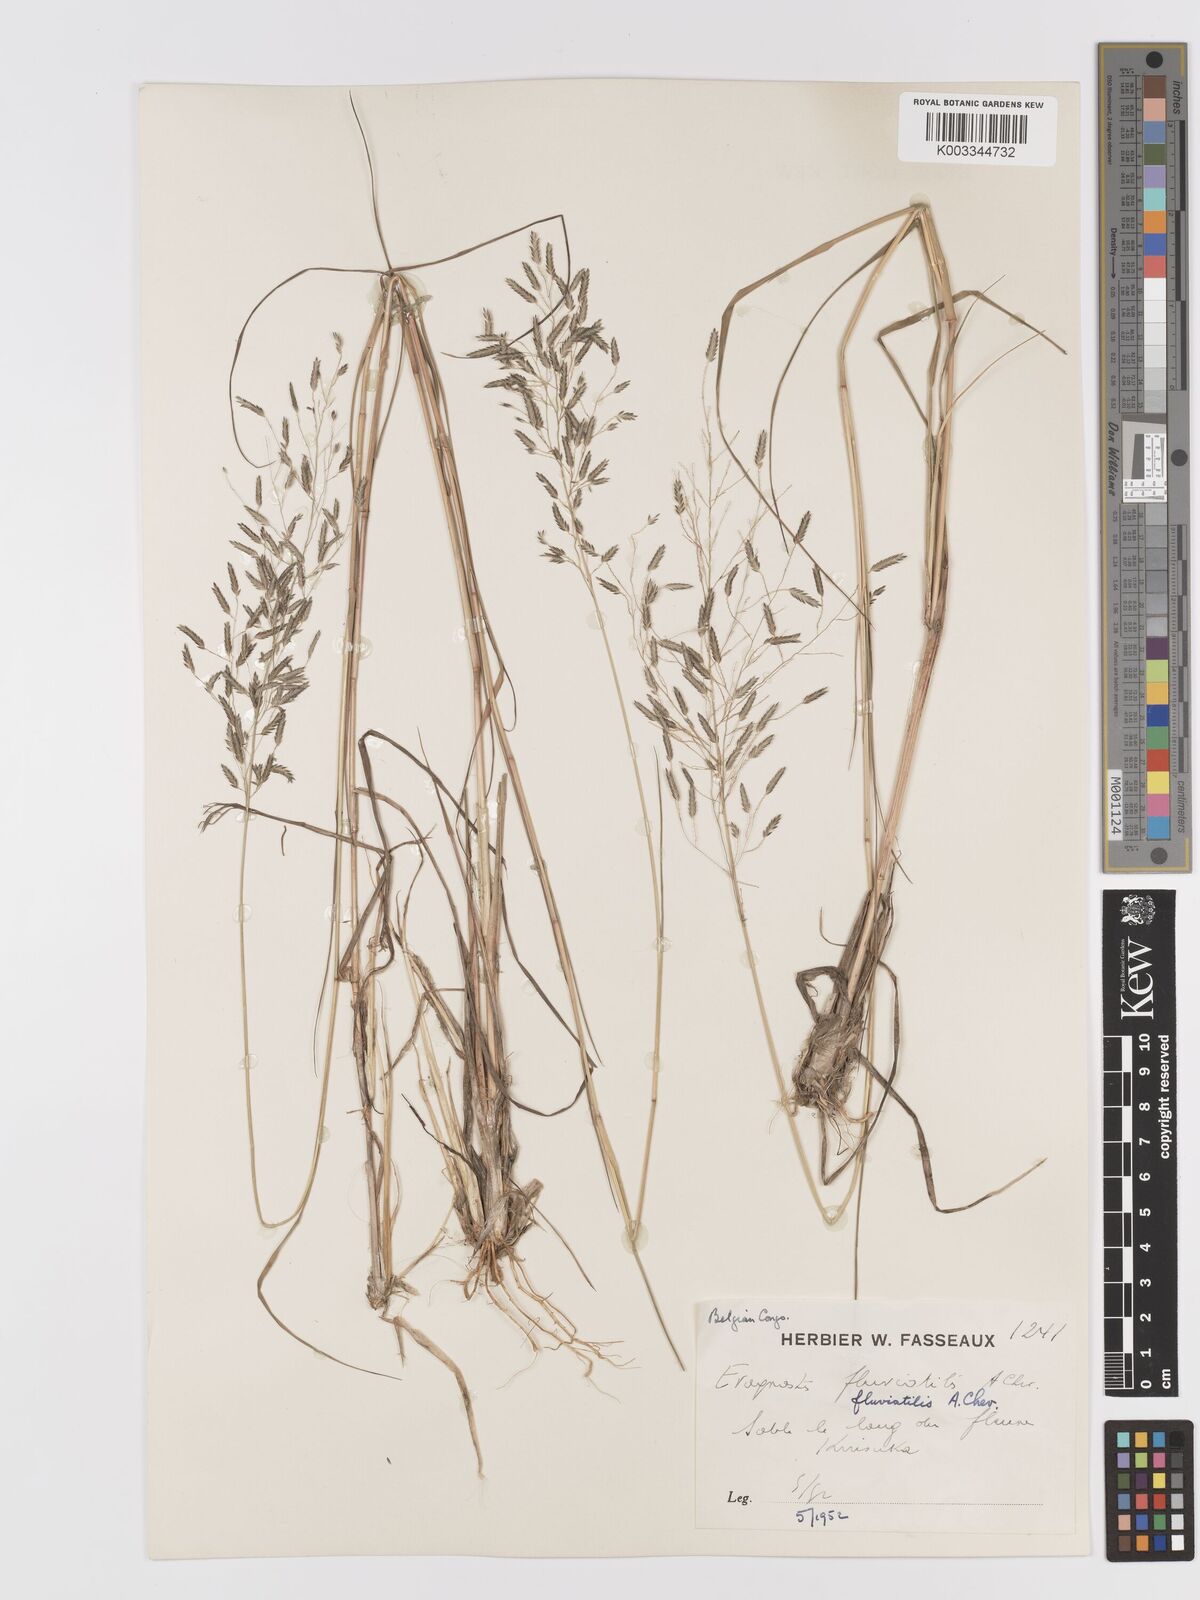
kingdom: Plantae
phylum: Tracheophyta
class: Liliopsida
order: Poales
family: Poaceae
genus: Eragrostis
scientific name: Eragrostis barteri
